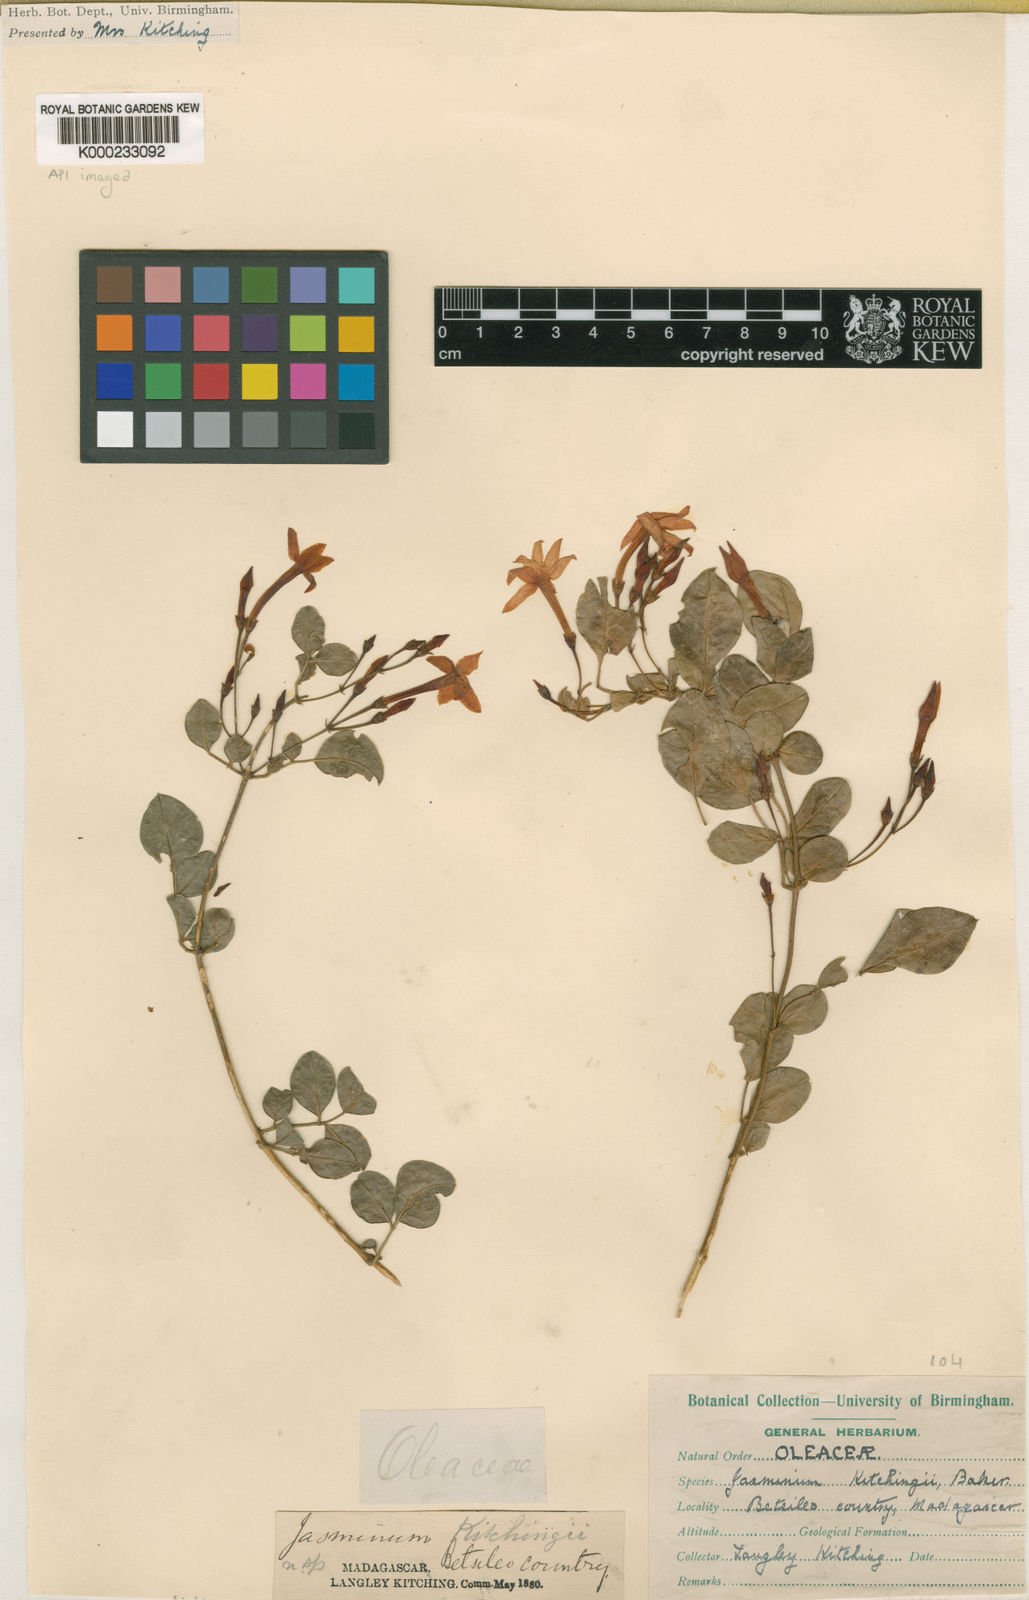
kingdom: Plantae
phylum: Tracheophyta
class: Magnoliopsida
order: Lamiales
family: Oleaceae
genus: Jasminum
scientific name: Jasminum kitchingii
